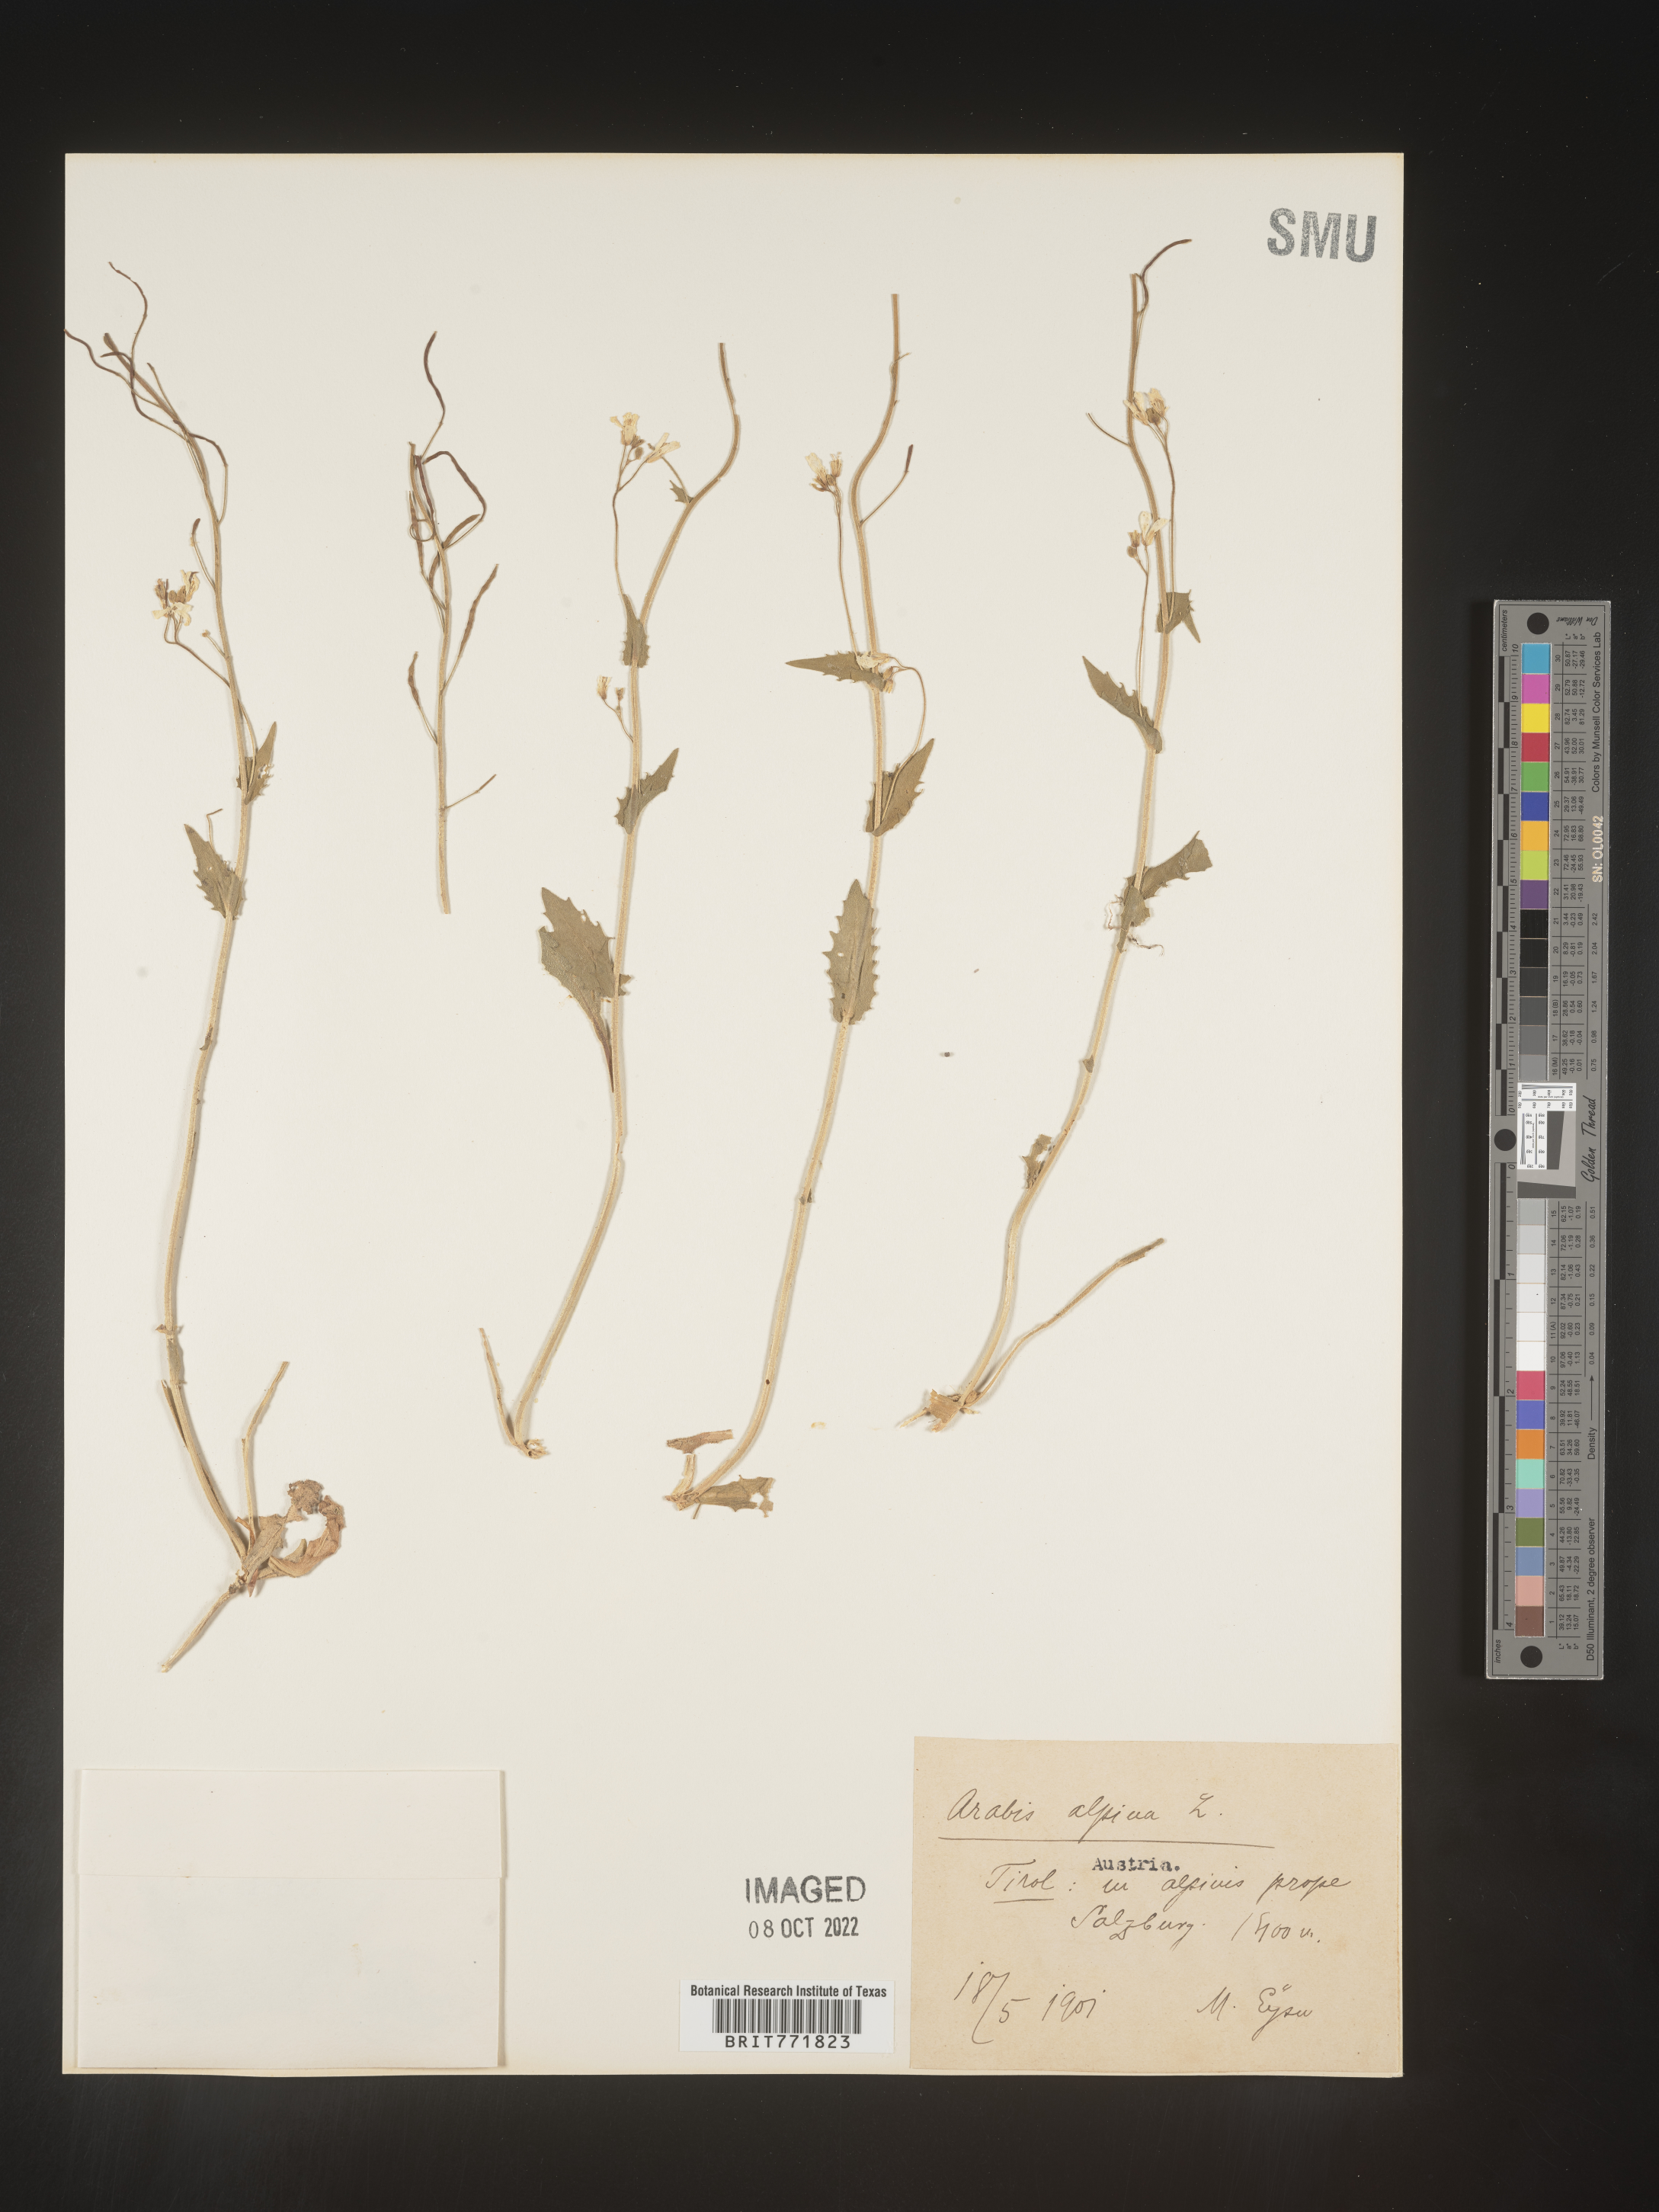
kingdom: Plantae
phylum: Tracheophyta
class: Magnoliopsida
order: Brassicales
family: Brassicaceae
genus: Arabis
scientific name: Arabis
